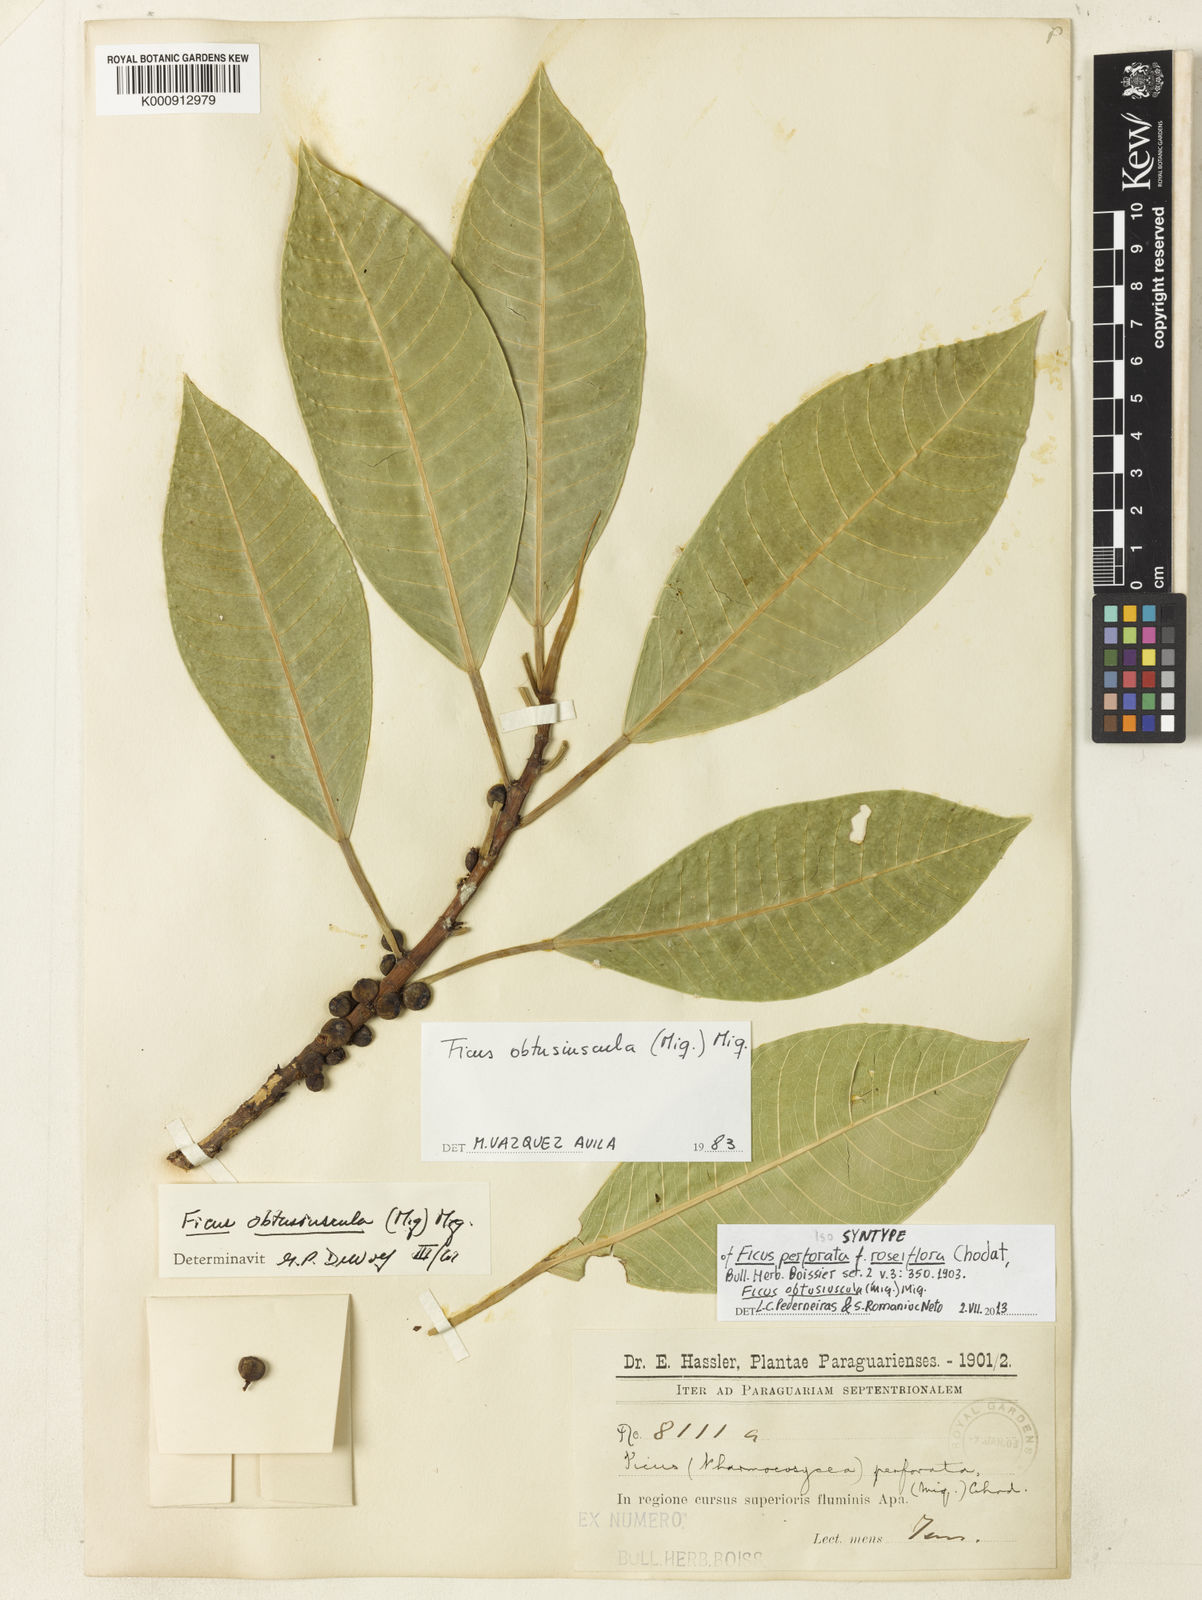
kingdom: Plantae
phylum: Tracheophyta
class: Magnoliopsida
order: Rosales
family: Moraceae
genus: Ficus
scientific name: Ficus obtusiuscula
